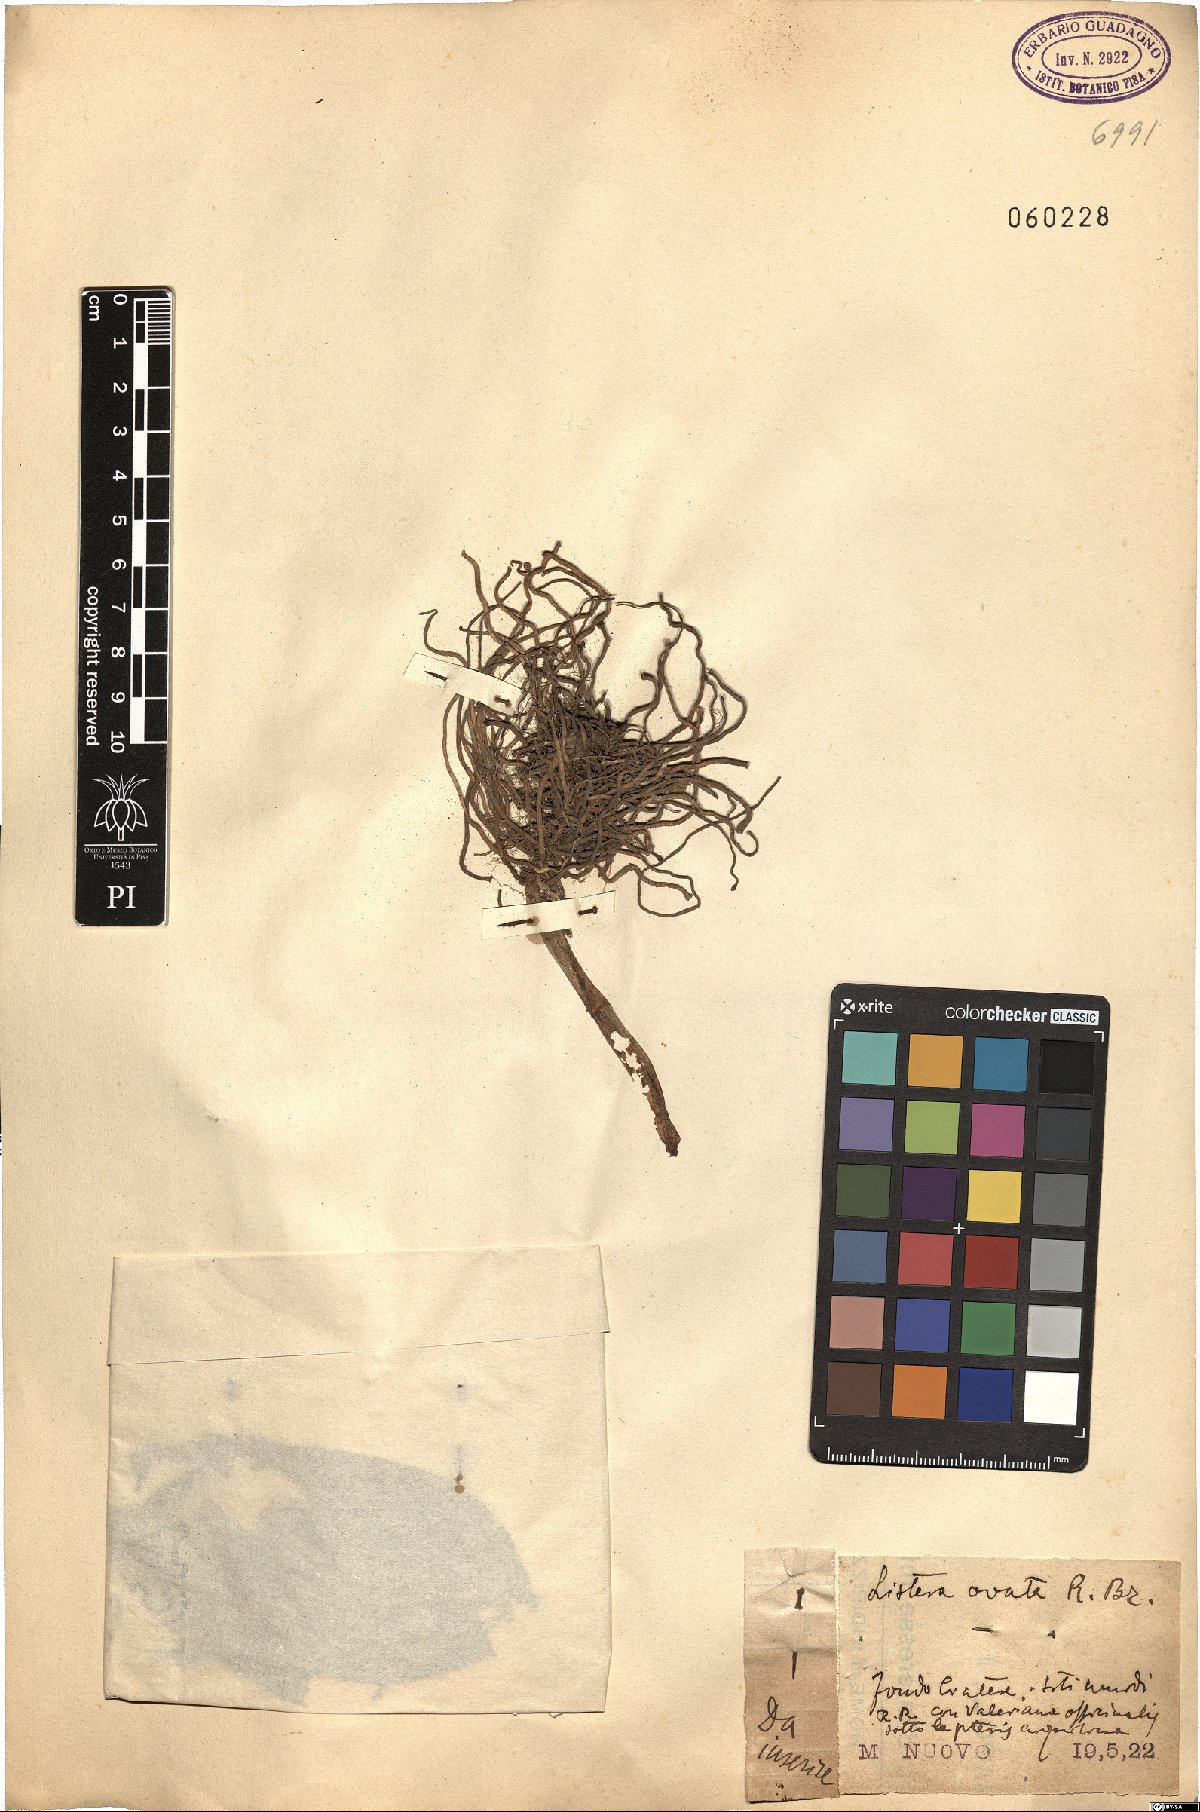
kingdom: Plantae
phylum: Tracheophyta
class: Liliopsida
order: Asparagales
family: Orchidaceae
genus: Neottia
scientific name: Neottia ovata
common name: Common twayblade
